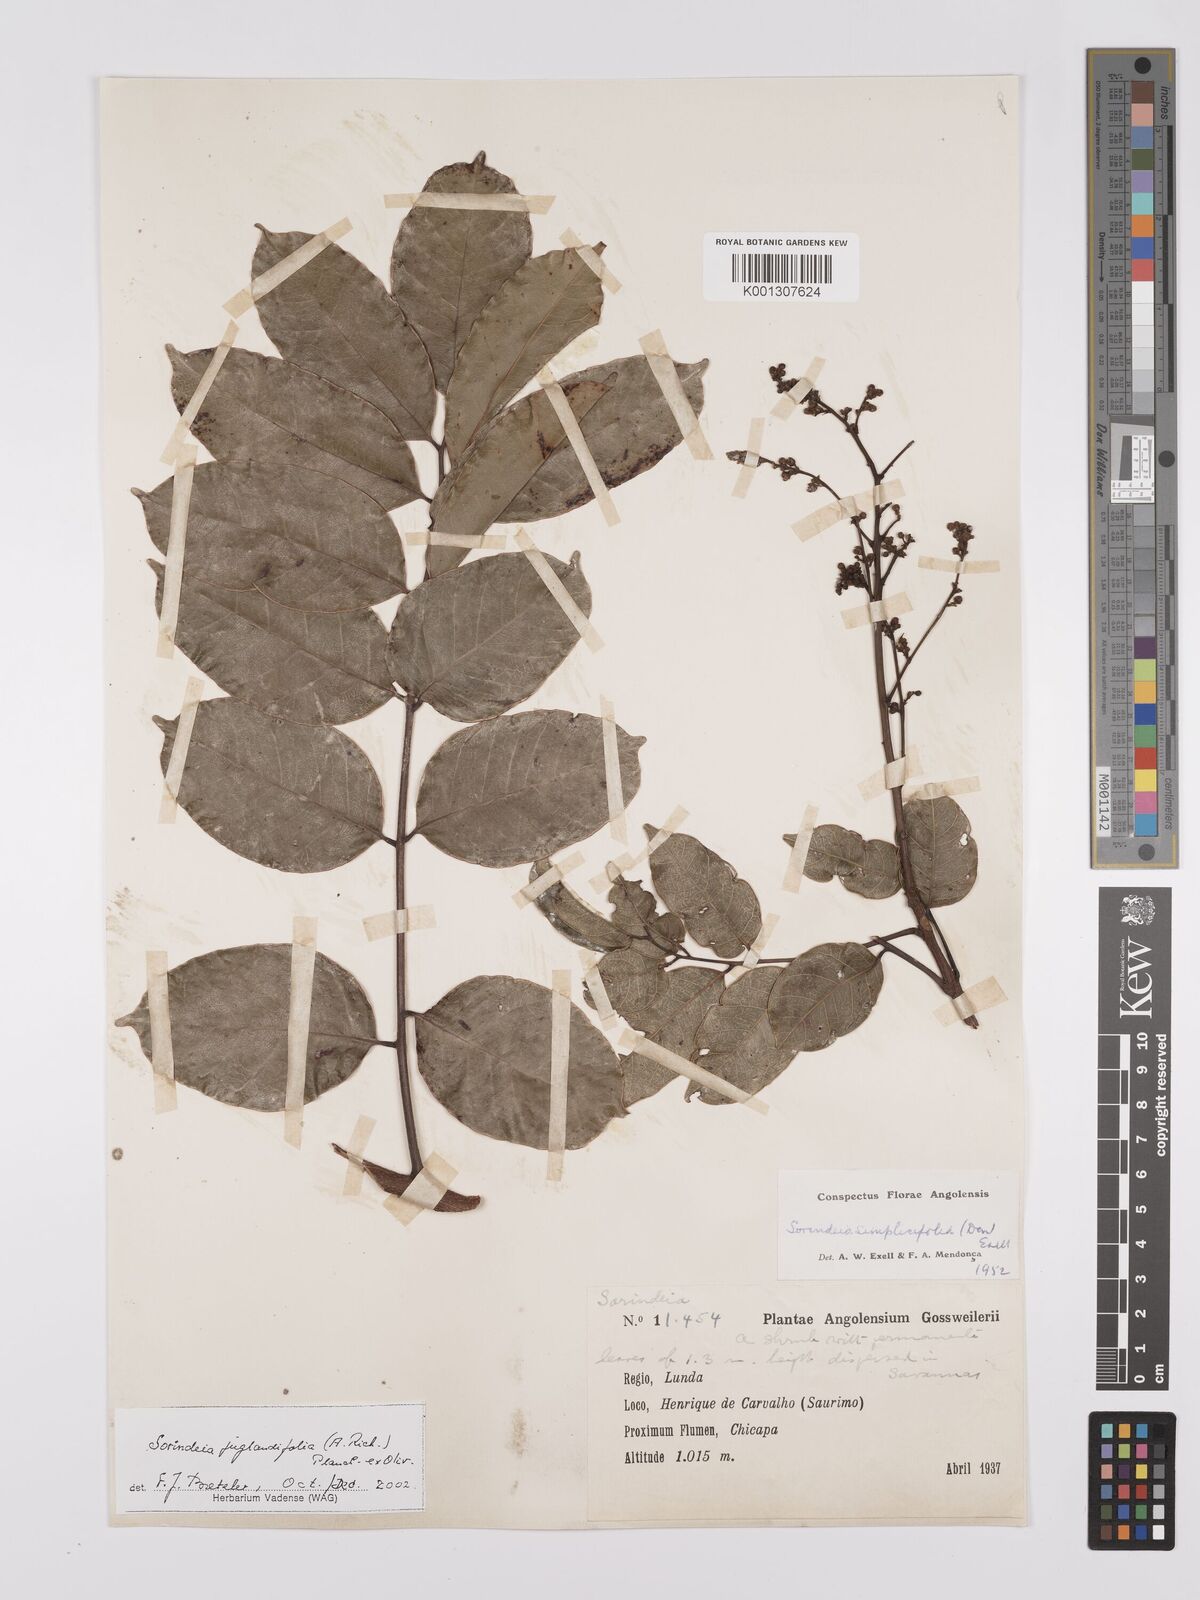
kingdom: Plantae
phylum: Tracheophyta
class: Magnoliopsida
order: Sapindales
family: Anacardiaceae
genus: Sorindeia
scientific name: Sorindeia juglandifolia
